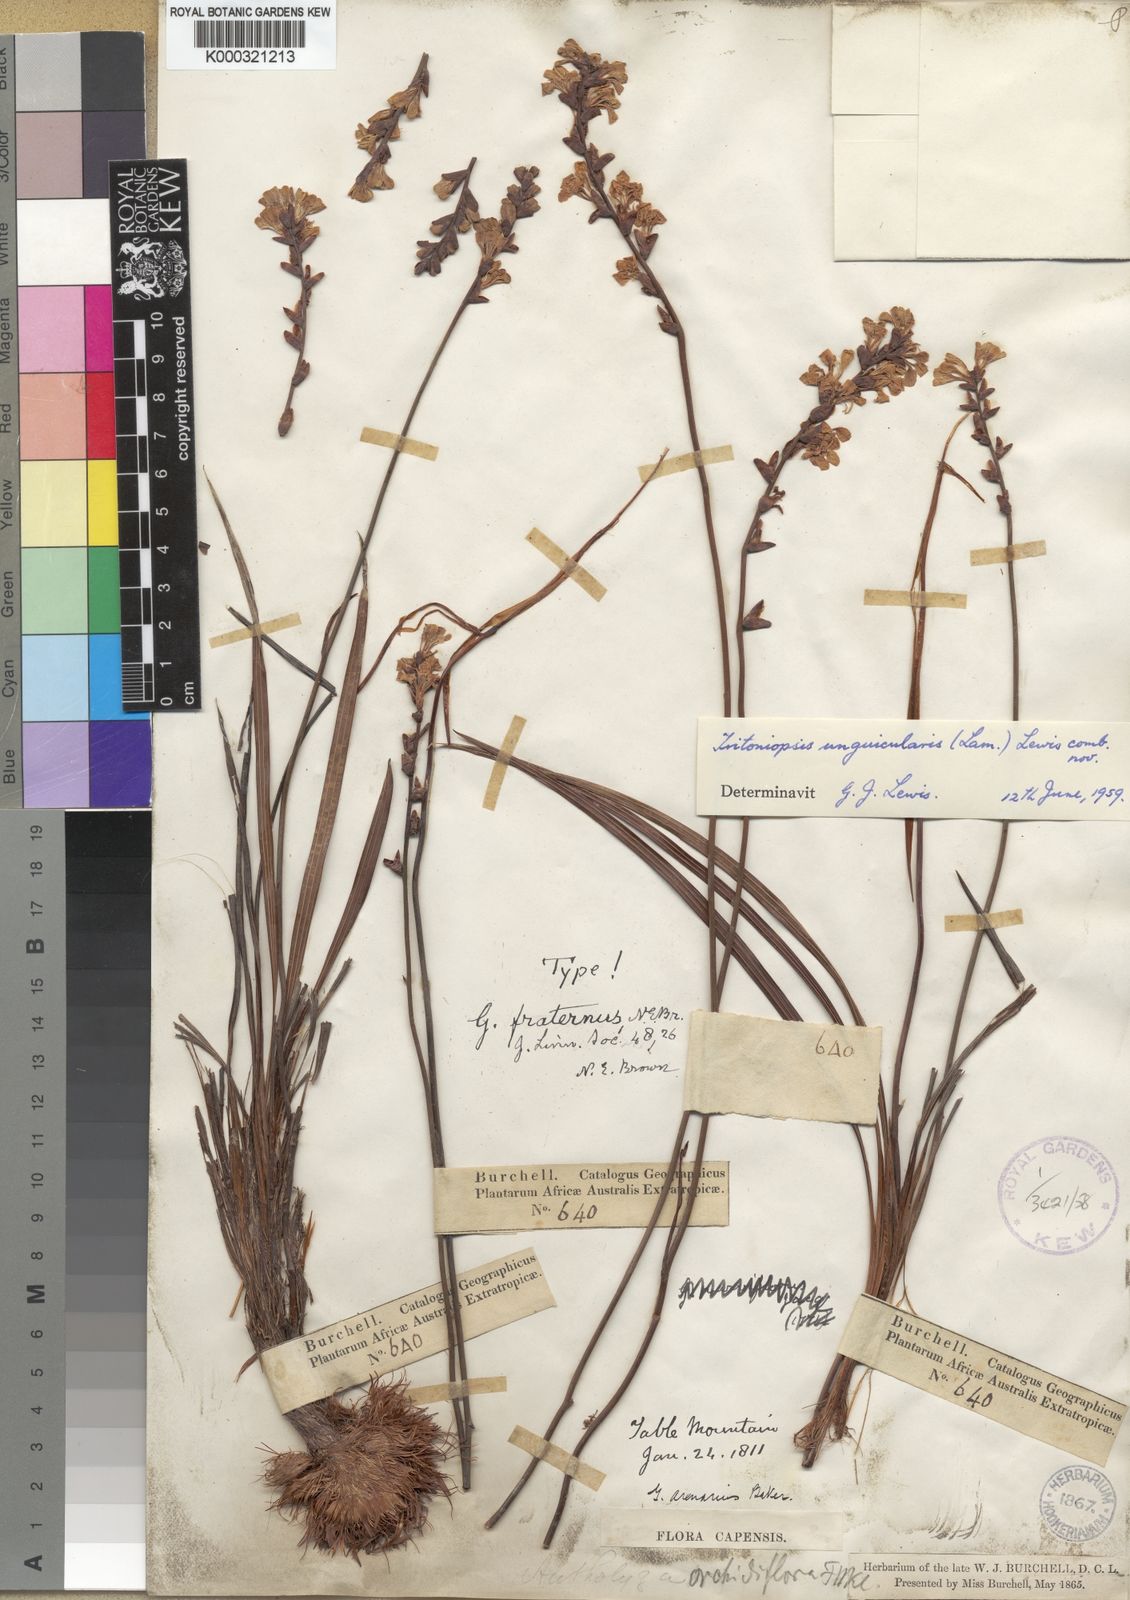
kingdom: Plantae
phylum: Tracheophyta
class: Liliopsida
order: Asparagales
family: Iridaceae
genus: Tritoniopsis
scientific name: Tritoniopsis unguicularis
